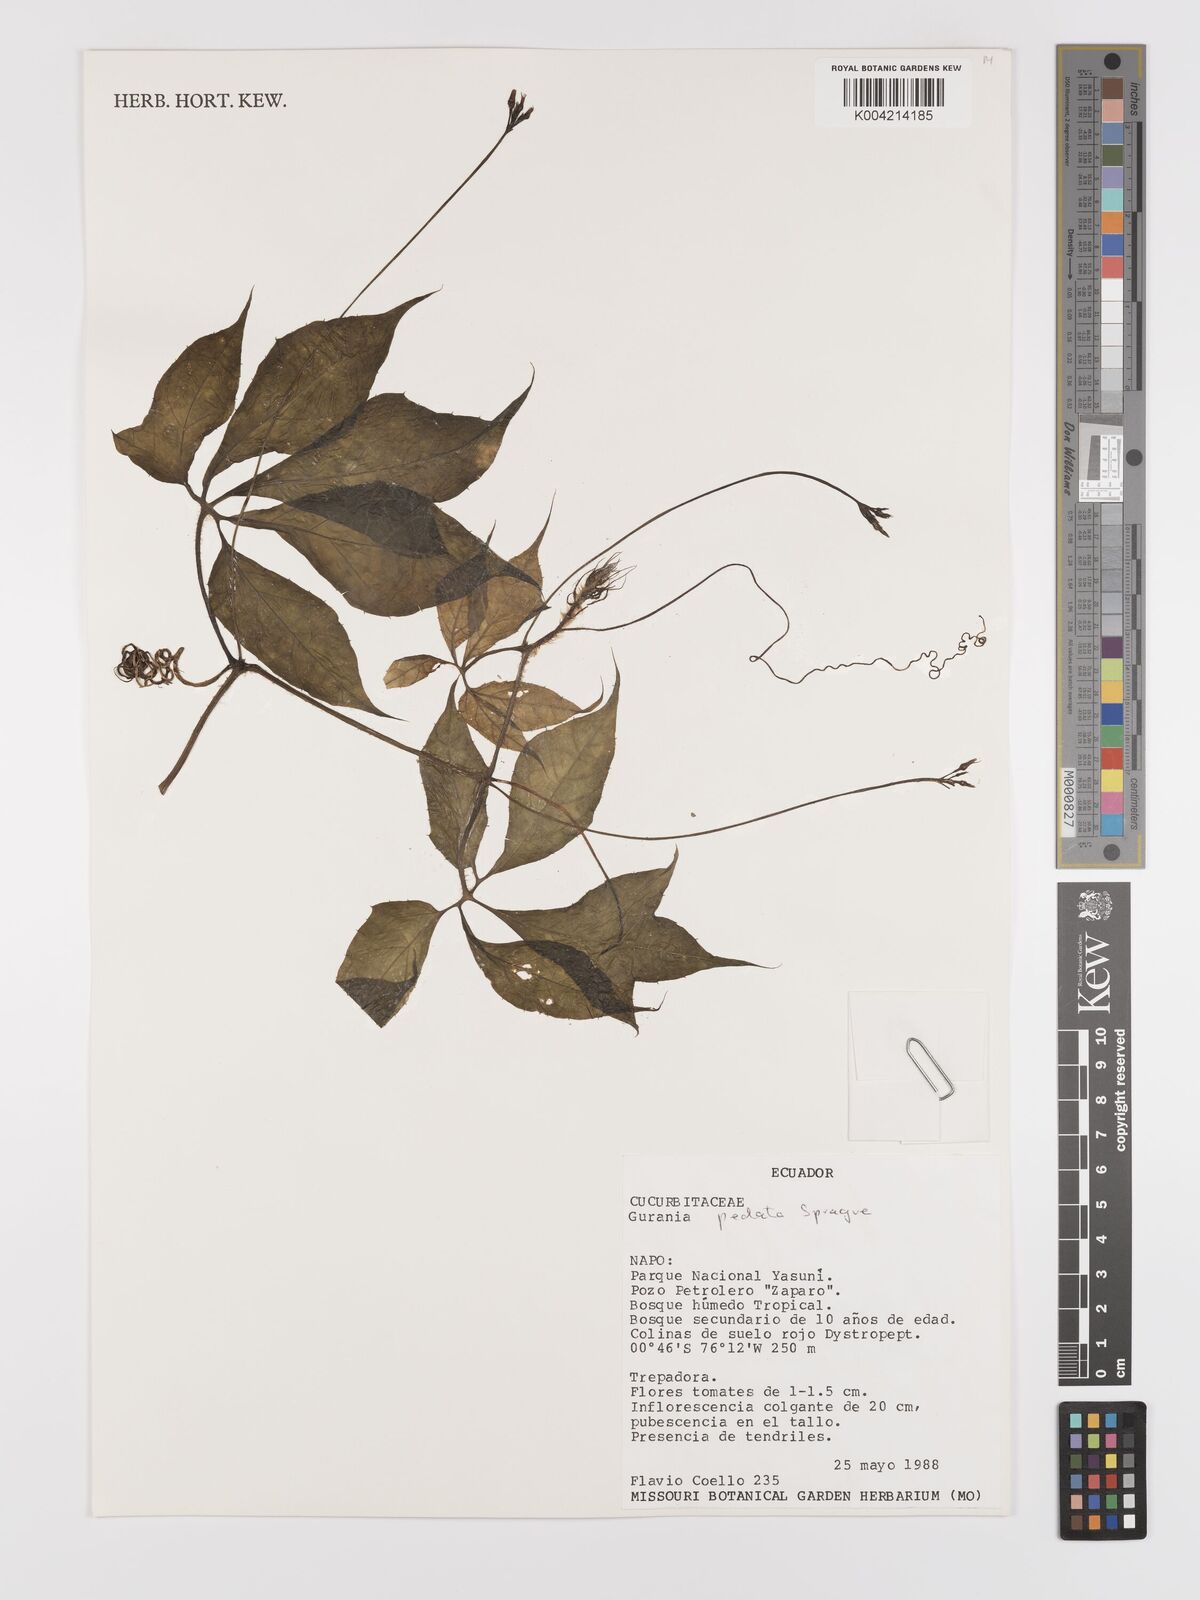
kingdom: Plantae
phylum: Tracheophyta
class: Magnoliopsida
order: Cucurbitales
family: Cucurbitaceae
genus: Gurania
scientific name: Gurania pedata
